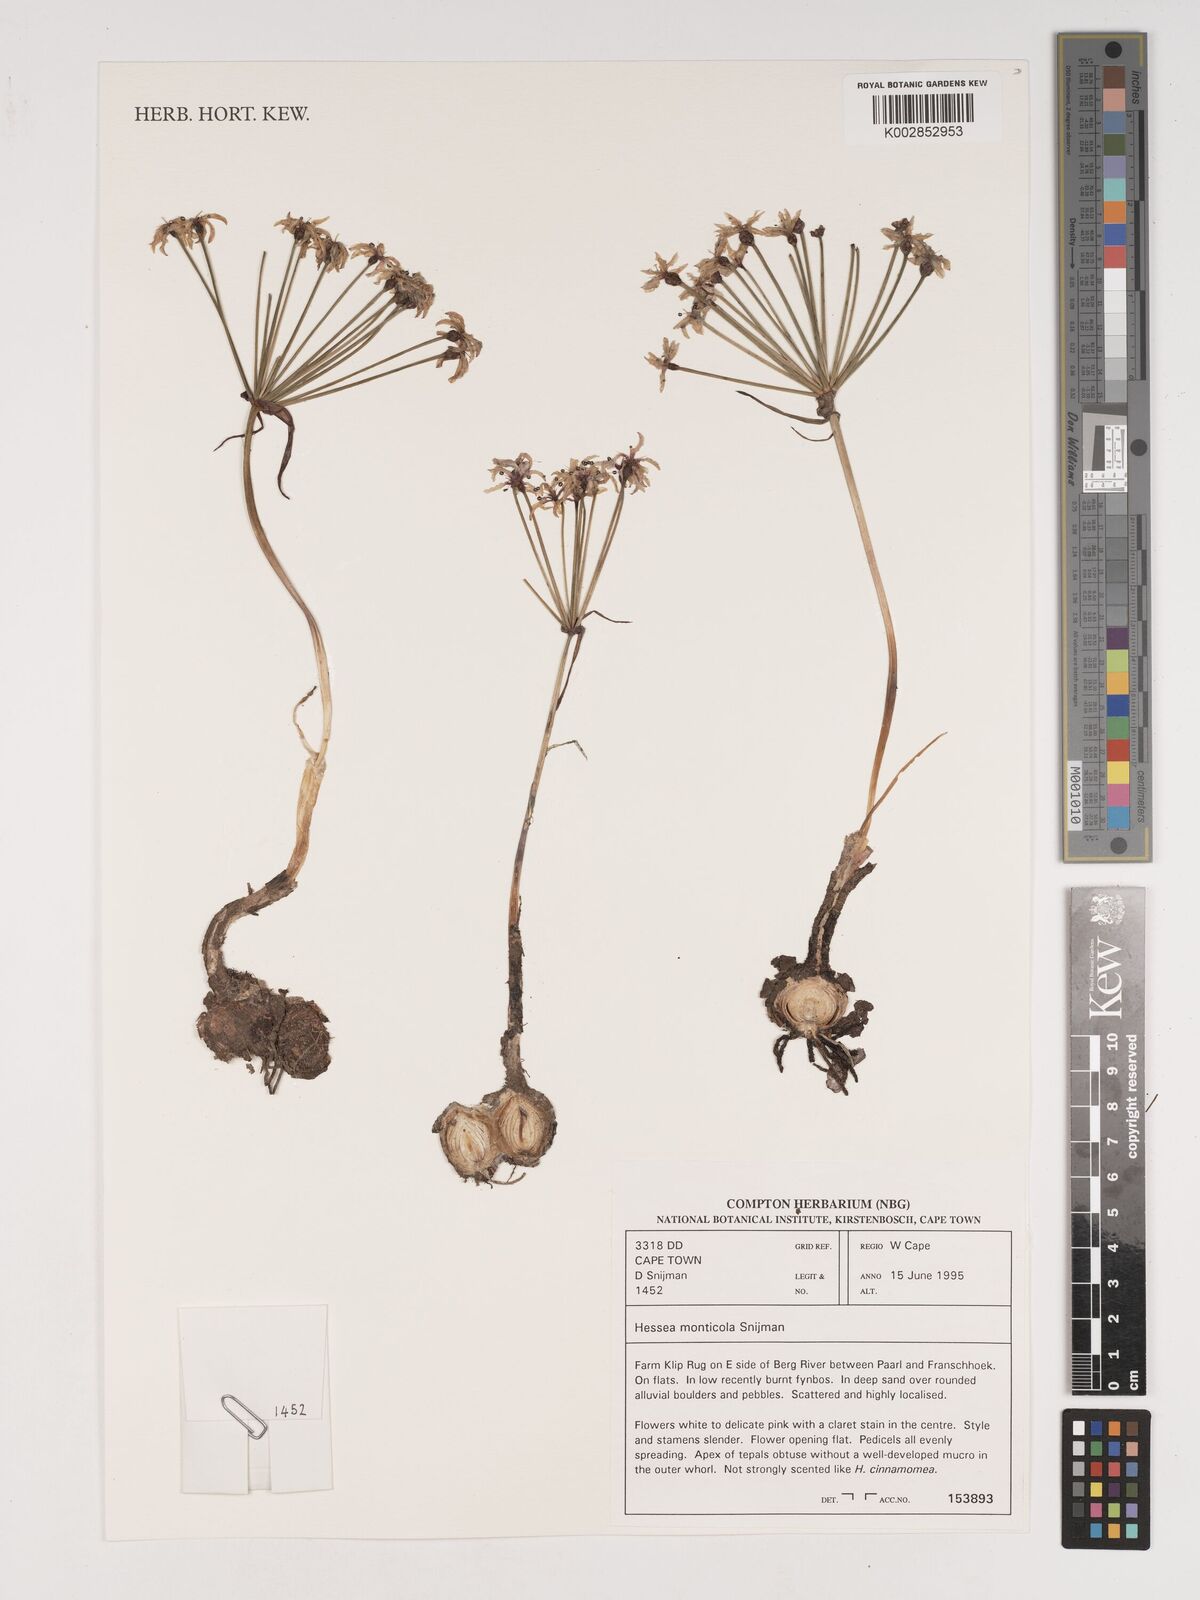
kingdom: Plantae
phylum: Tracheophyta
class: Liliopsida
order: Asparagales
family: Amaryllidaceae
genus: Hessea
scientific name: Hessea monticola
